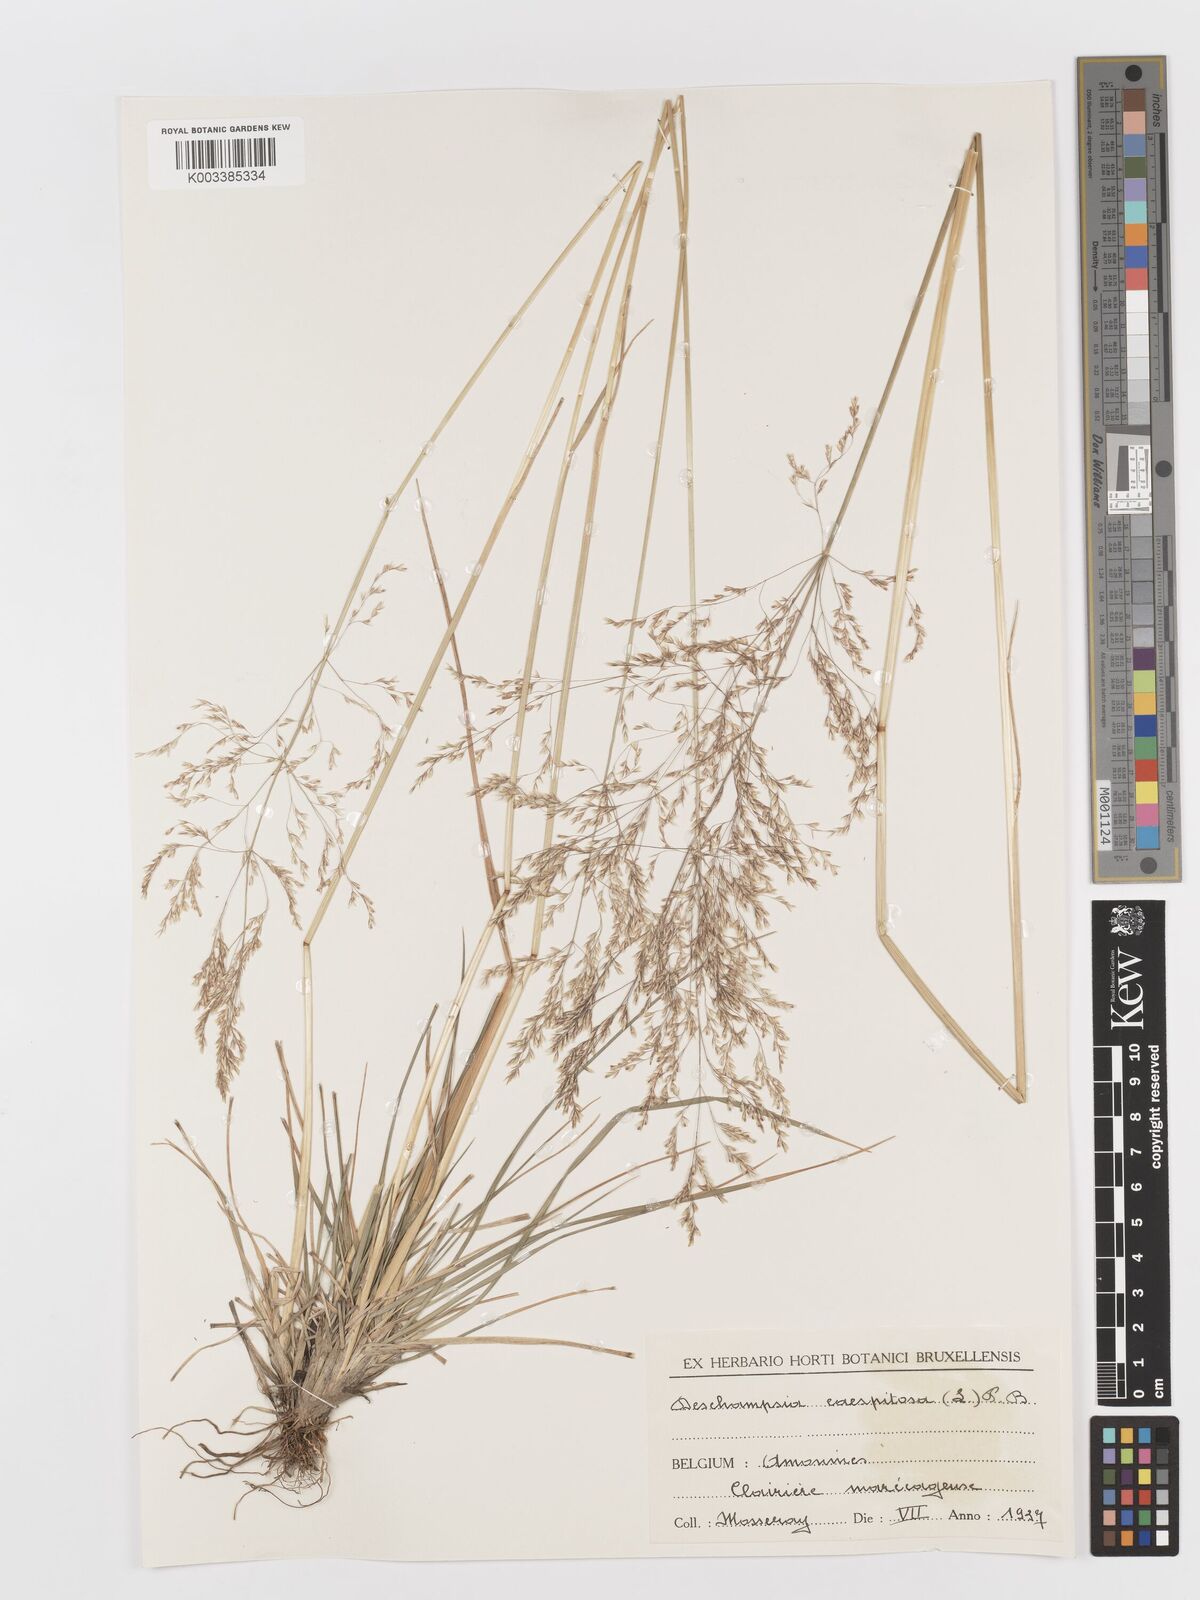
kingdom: Plantae
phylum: Tracheophyta
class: Liliopsida
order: Poales
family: Poaceae
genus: Deschampsia
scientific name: Deschampsia cespitosa
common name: Tufted hair-grass
